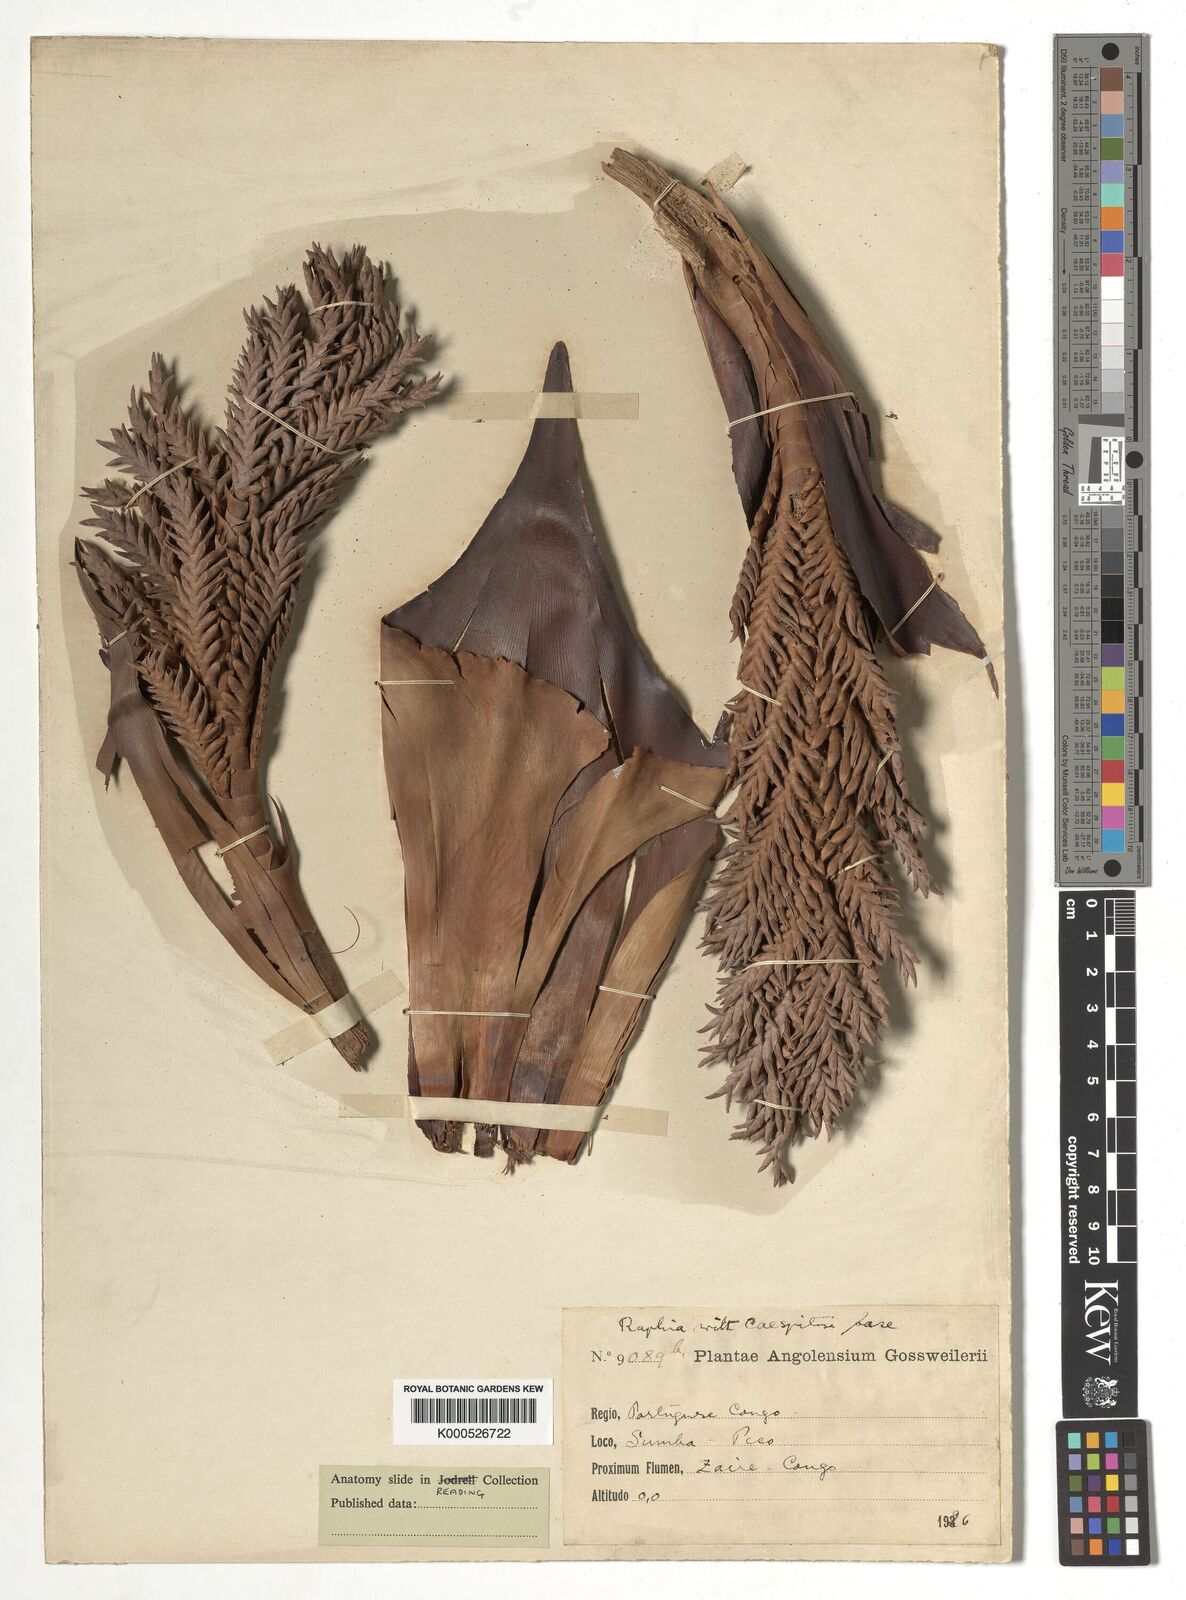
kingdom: Plantae
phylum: Tracheophyta
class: Liliopsida
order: Arecales
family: Arecaceae
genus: Raphia
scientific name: Raphia
